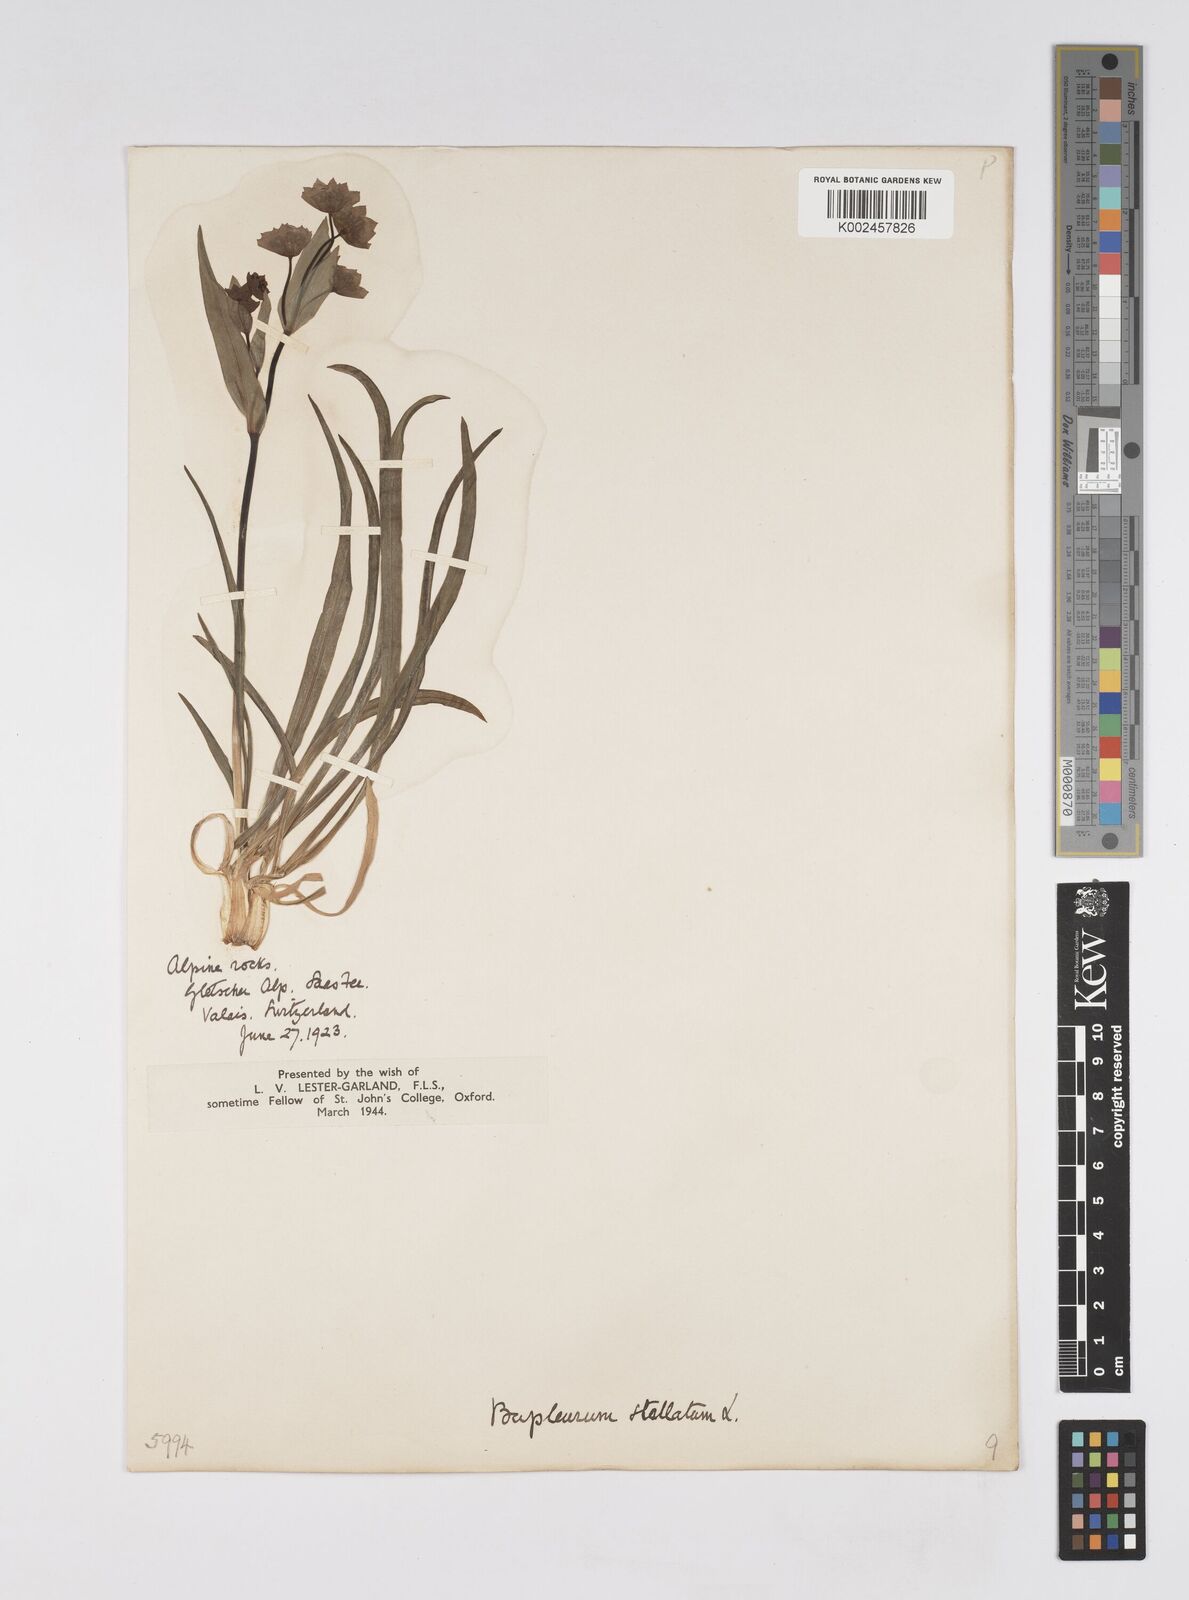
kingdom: Plantae
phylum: Tracheophyta
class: Magnoliopsida
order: Apiales
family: Apiaceae
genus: Bupleurum
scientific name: Bupleurum stellatum
